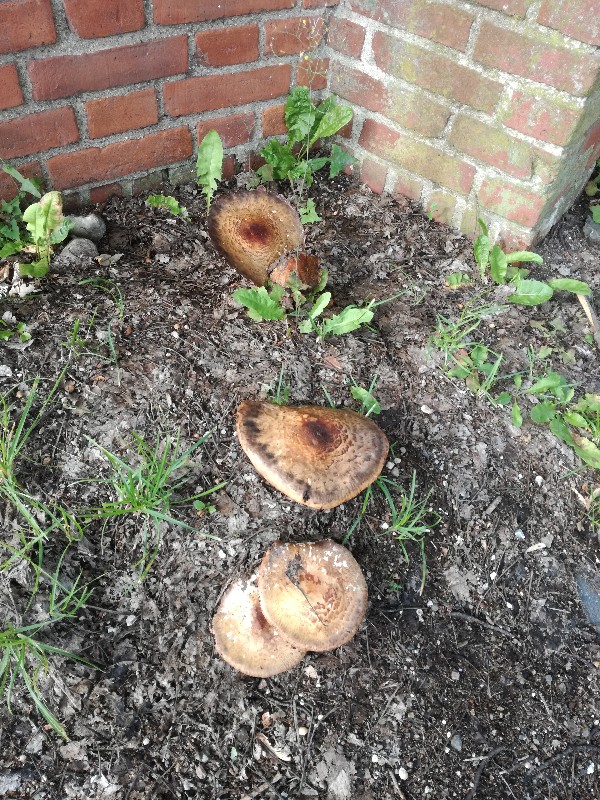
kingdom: Fungi
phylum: Basidiomycota
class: Agaricomycetes
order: Agaricales
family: Agaricaceae
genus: Agaricus
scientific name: Agaricus augustus
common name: prægtig champignon
